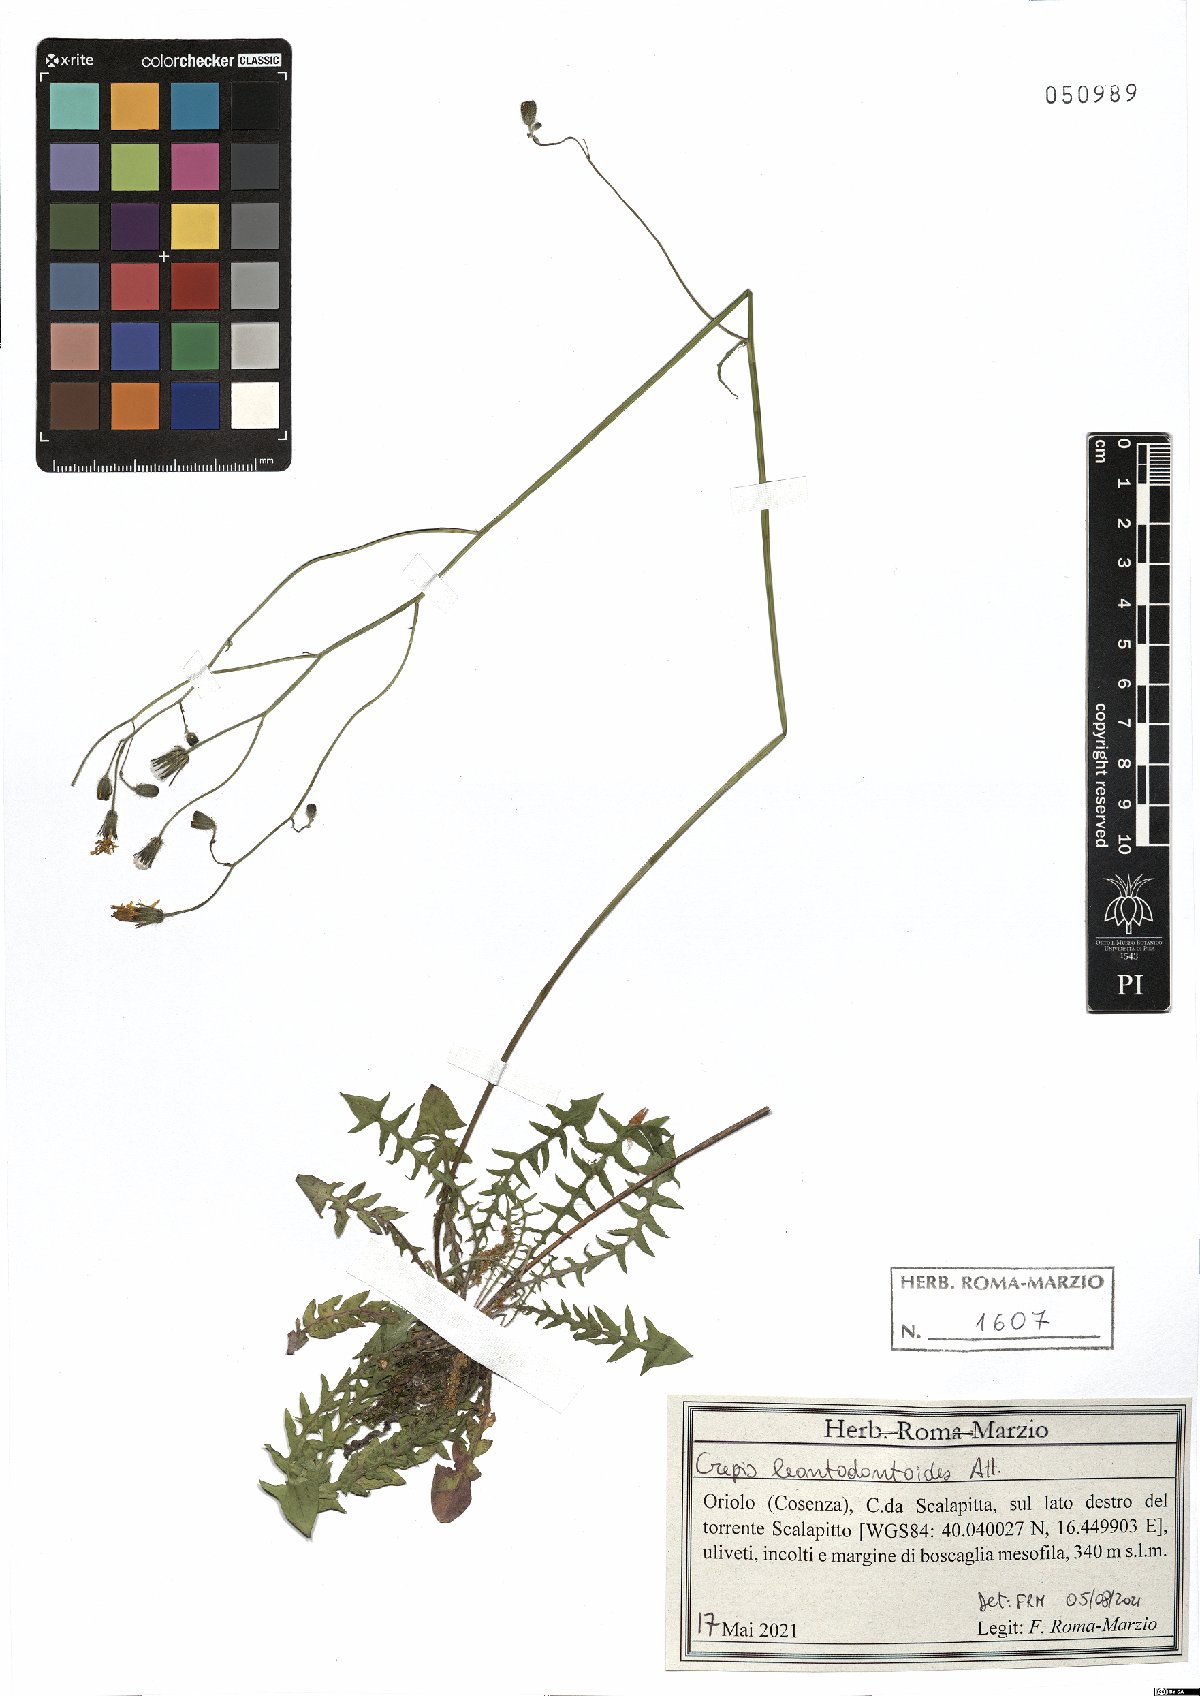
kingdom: Plantae
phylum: Tracheophyta
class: Magnoliopsida
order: Asterales
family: Asteraceae
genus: Crepis
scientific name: Crepis leontodontoides
